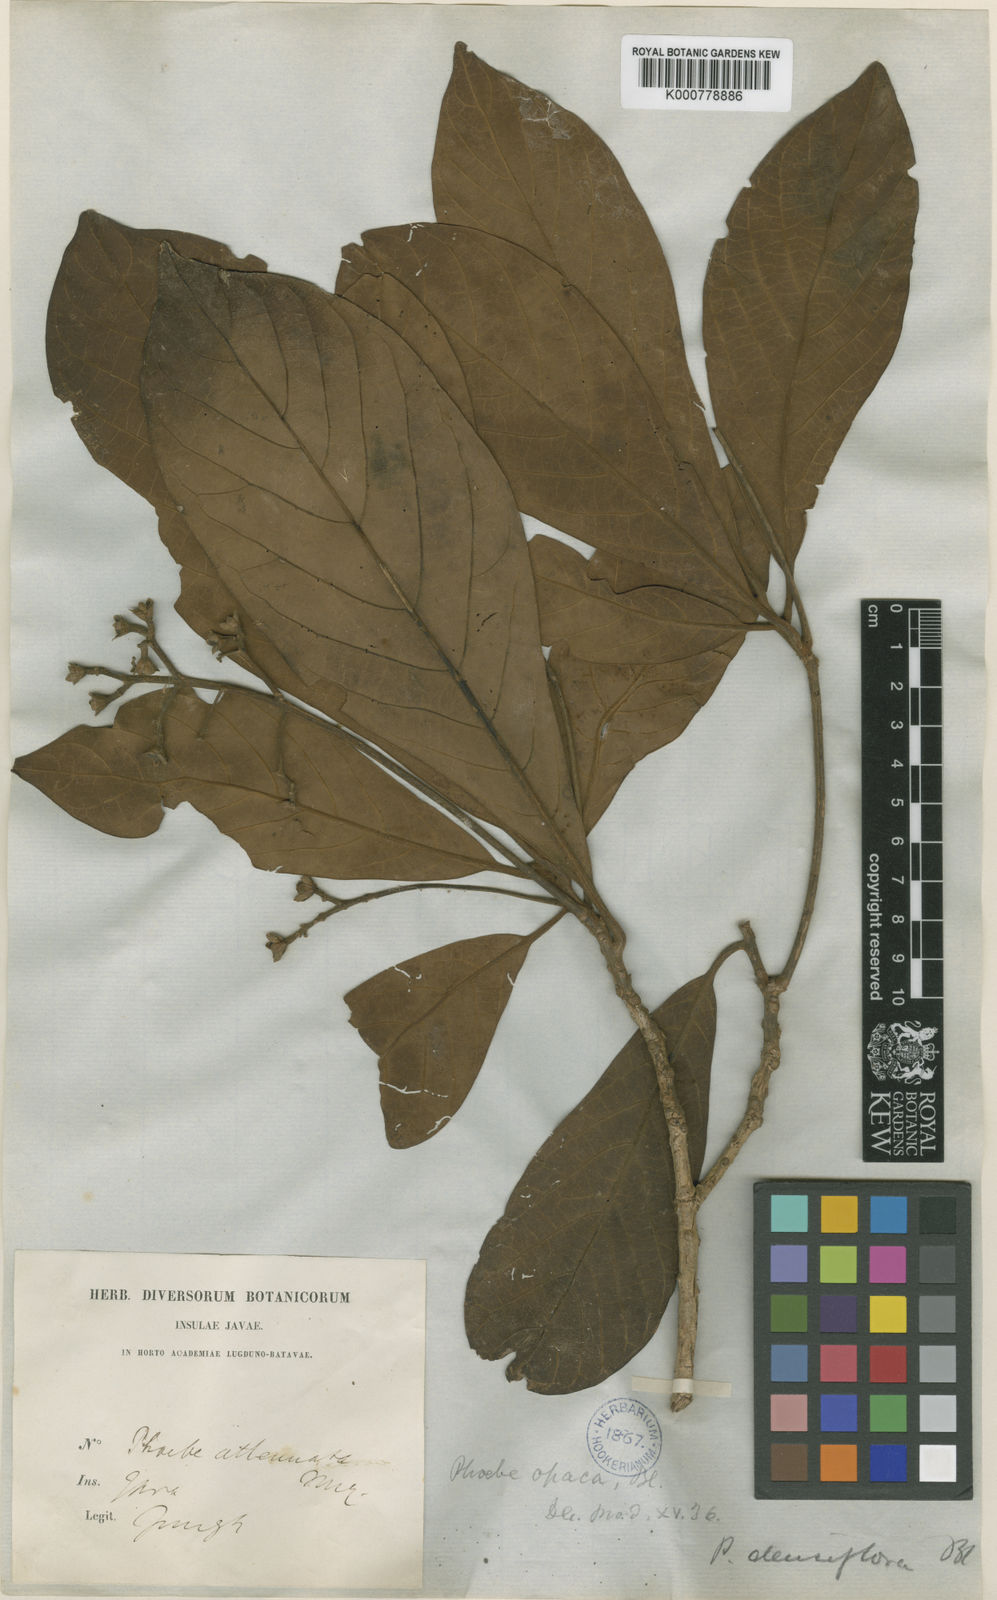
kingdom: Plantae
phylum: Tracheophyta
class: Magnoliopsida
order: Laurales
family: Lauraceae
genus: Phoebe
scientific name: Phoebe grandis
